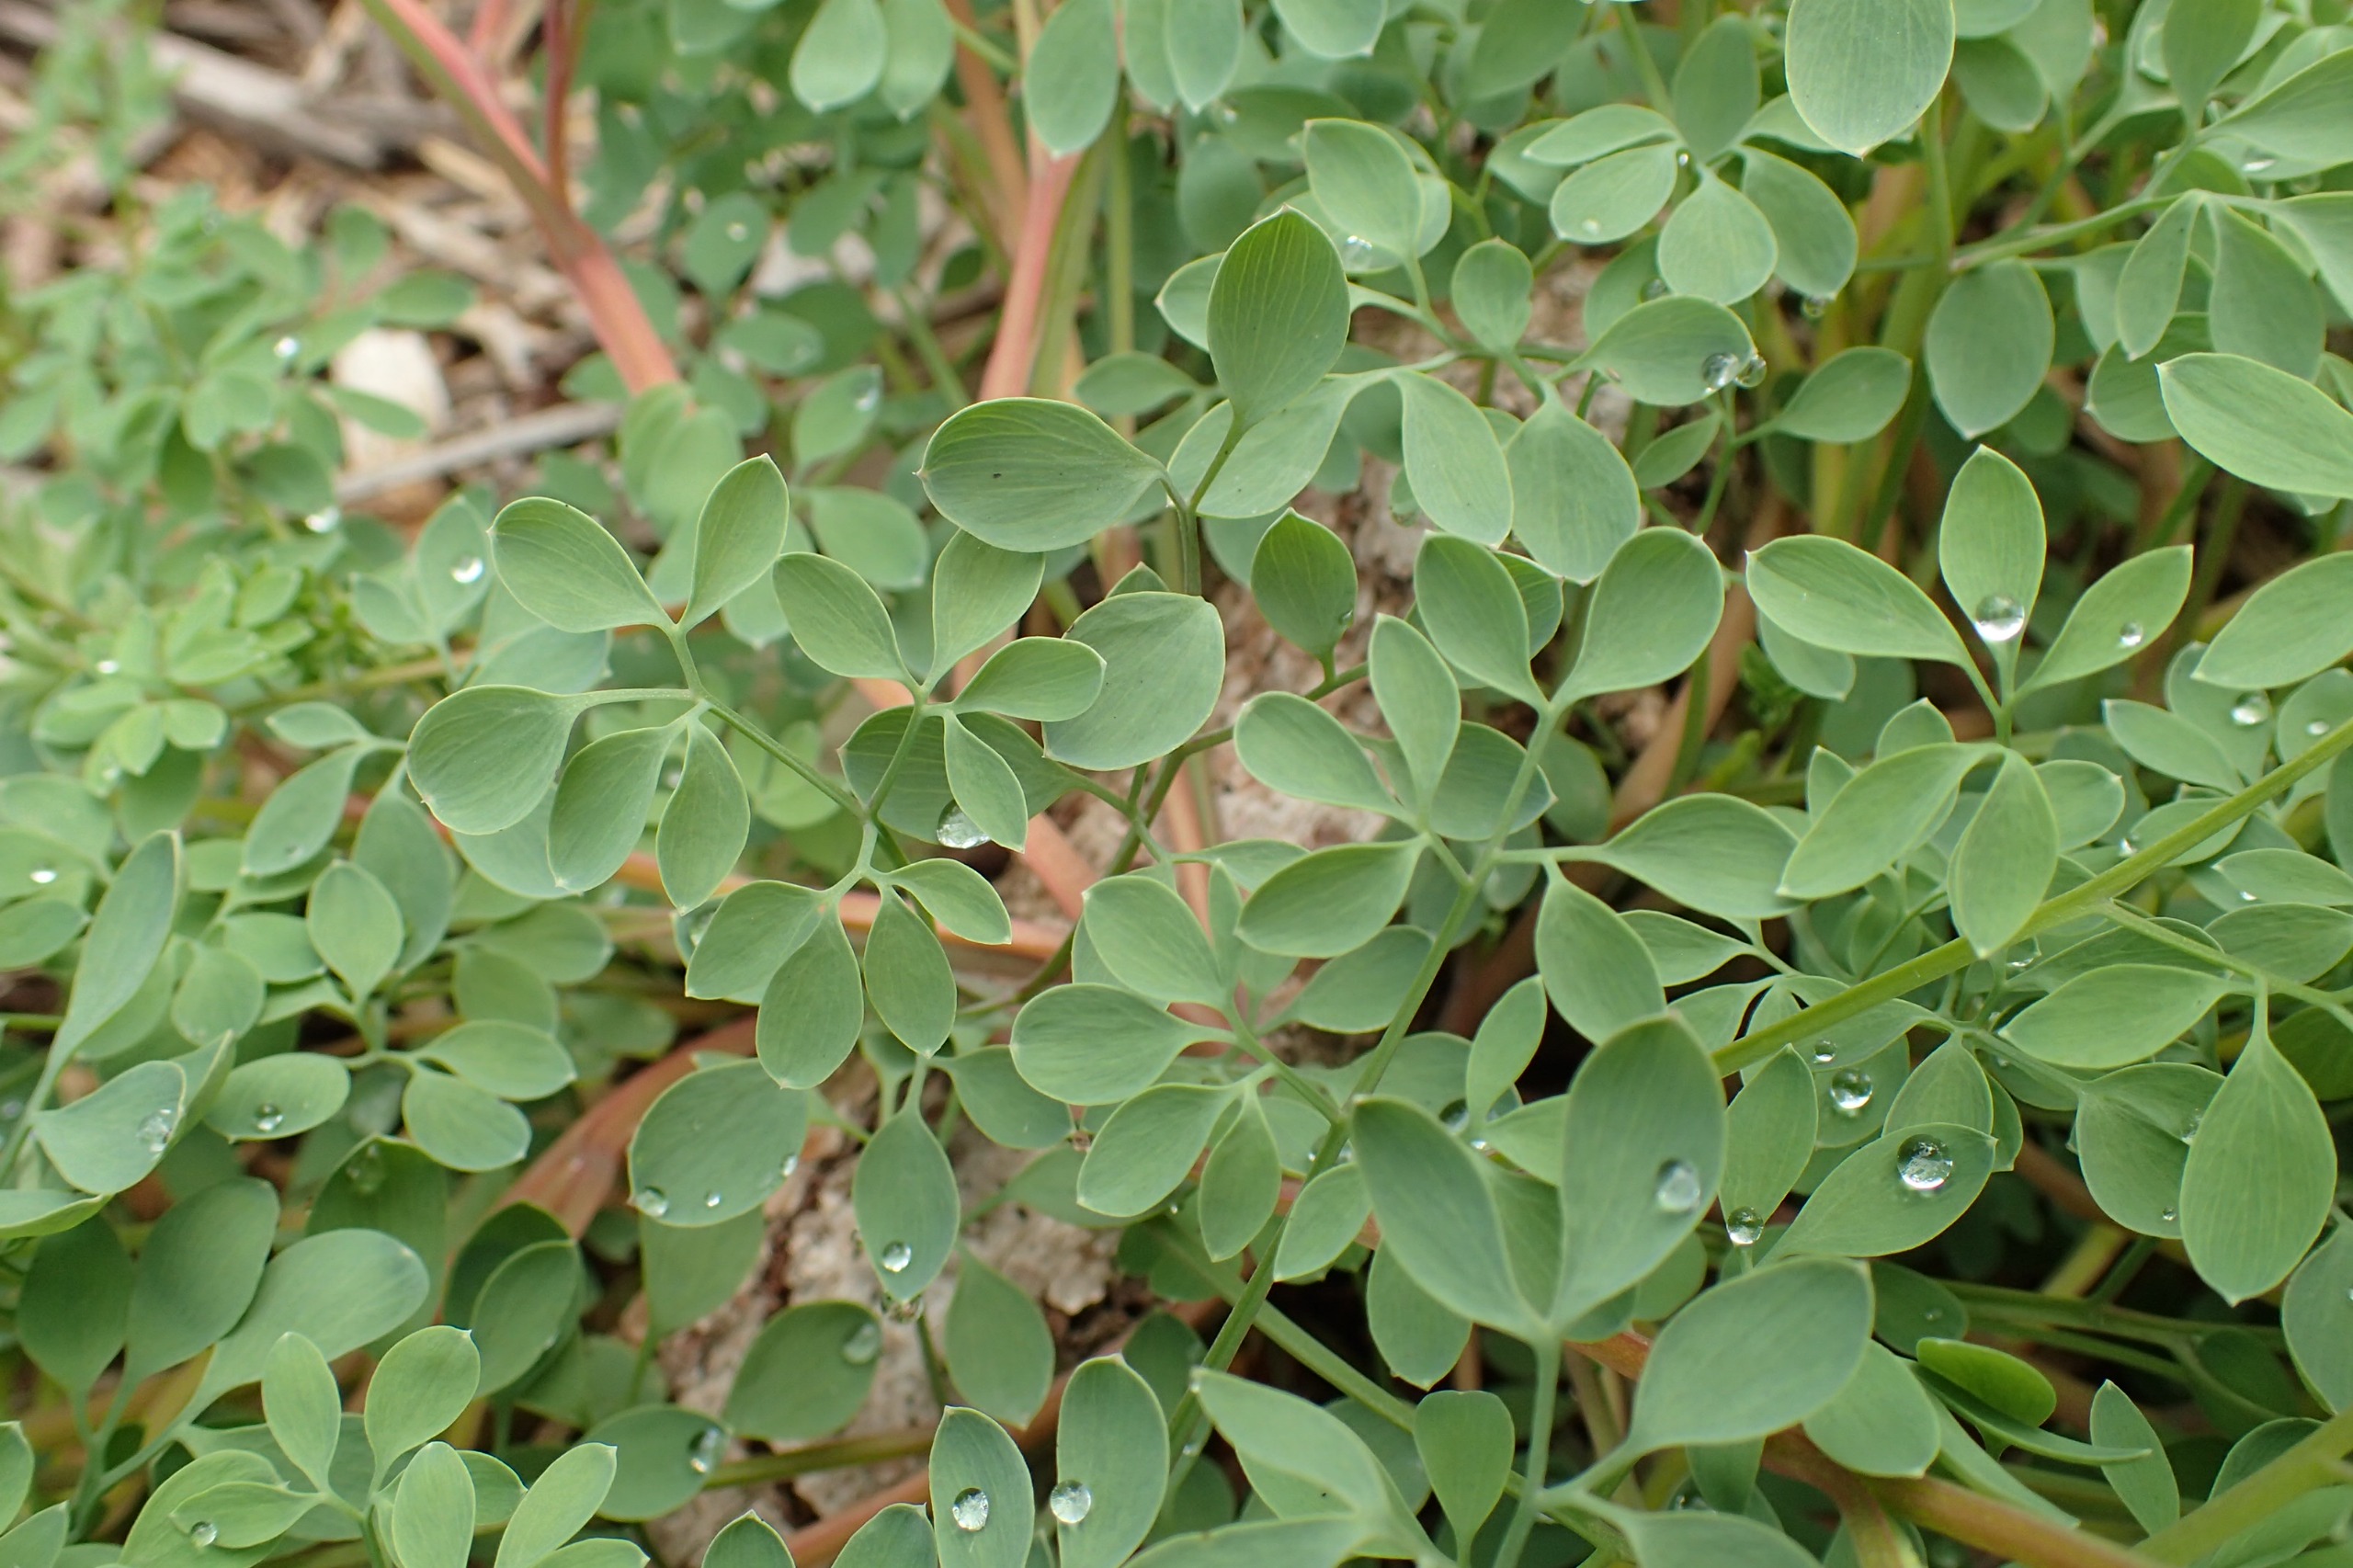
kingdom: Plantae
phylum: Tracheophyta
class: Magnoliopsida
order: Ranunculales
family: Papaveraceae
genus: Ceratocapnos
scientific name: Ceratocapnos claviculata
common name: Klatrende lærkespore
